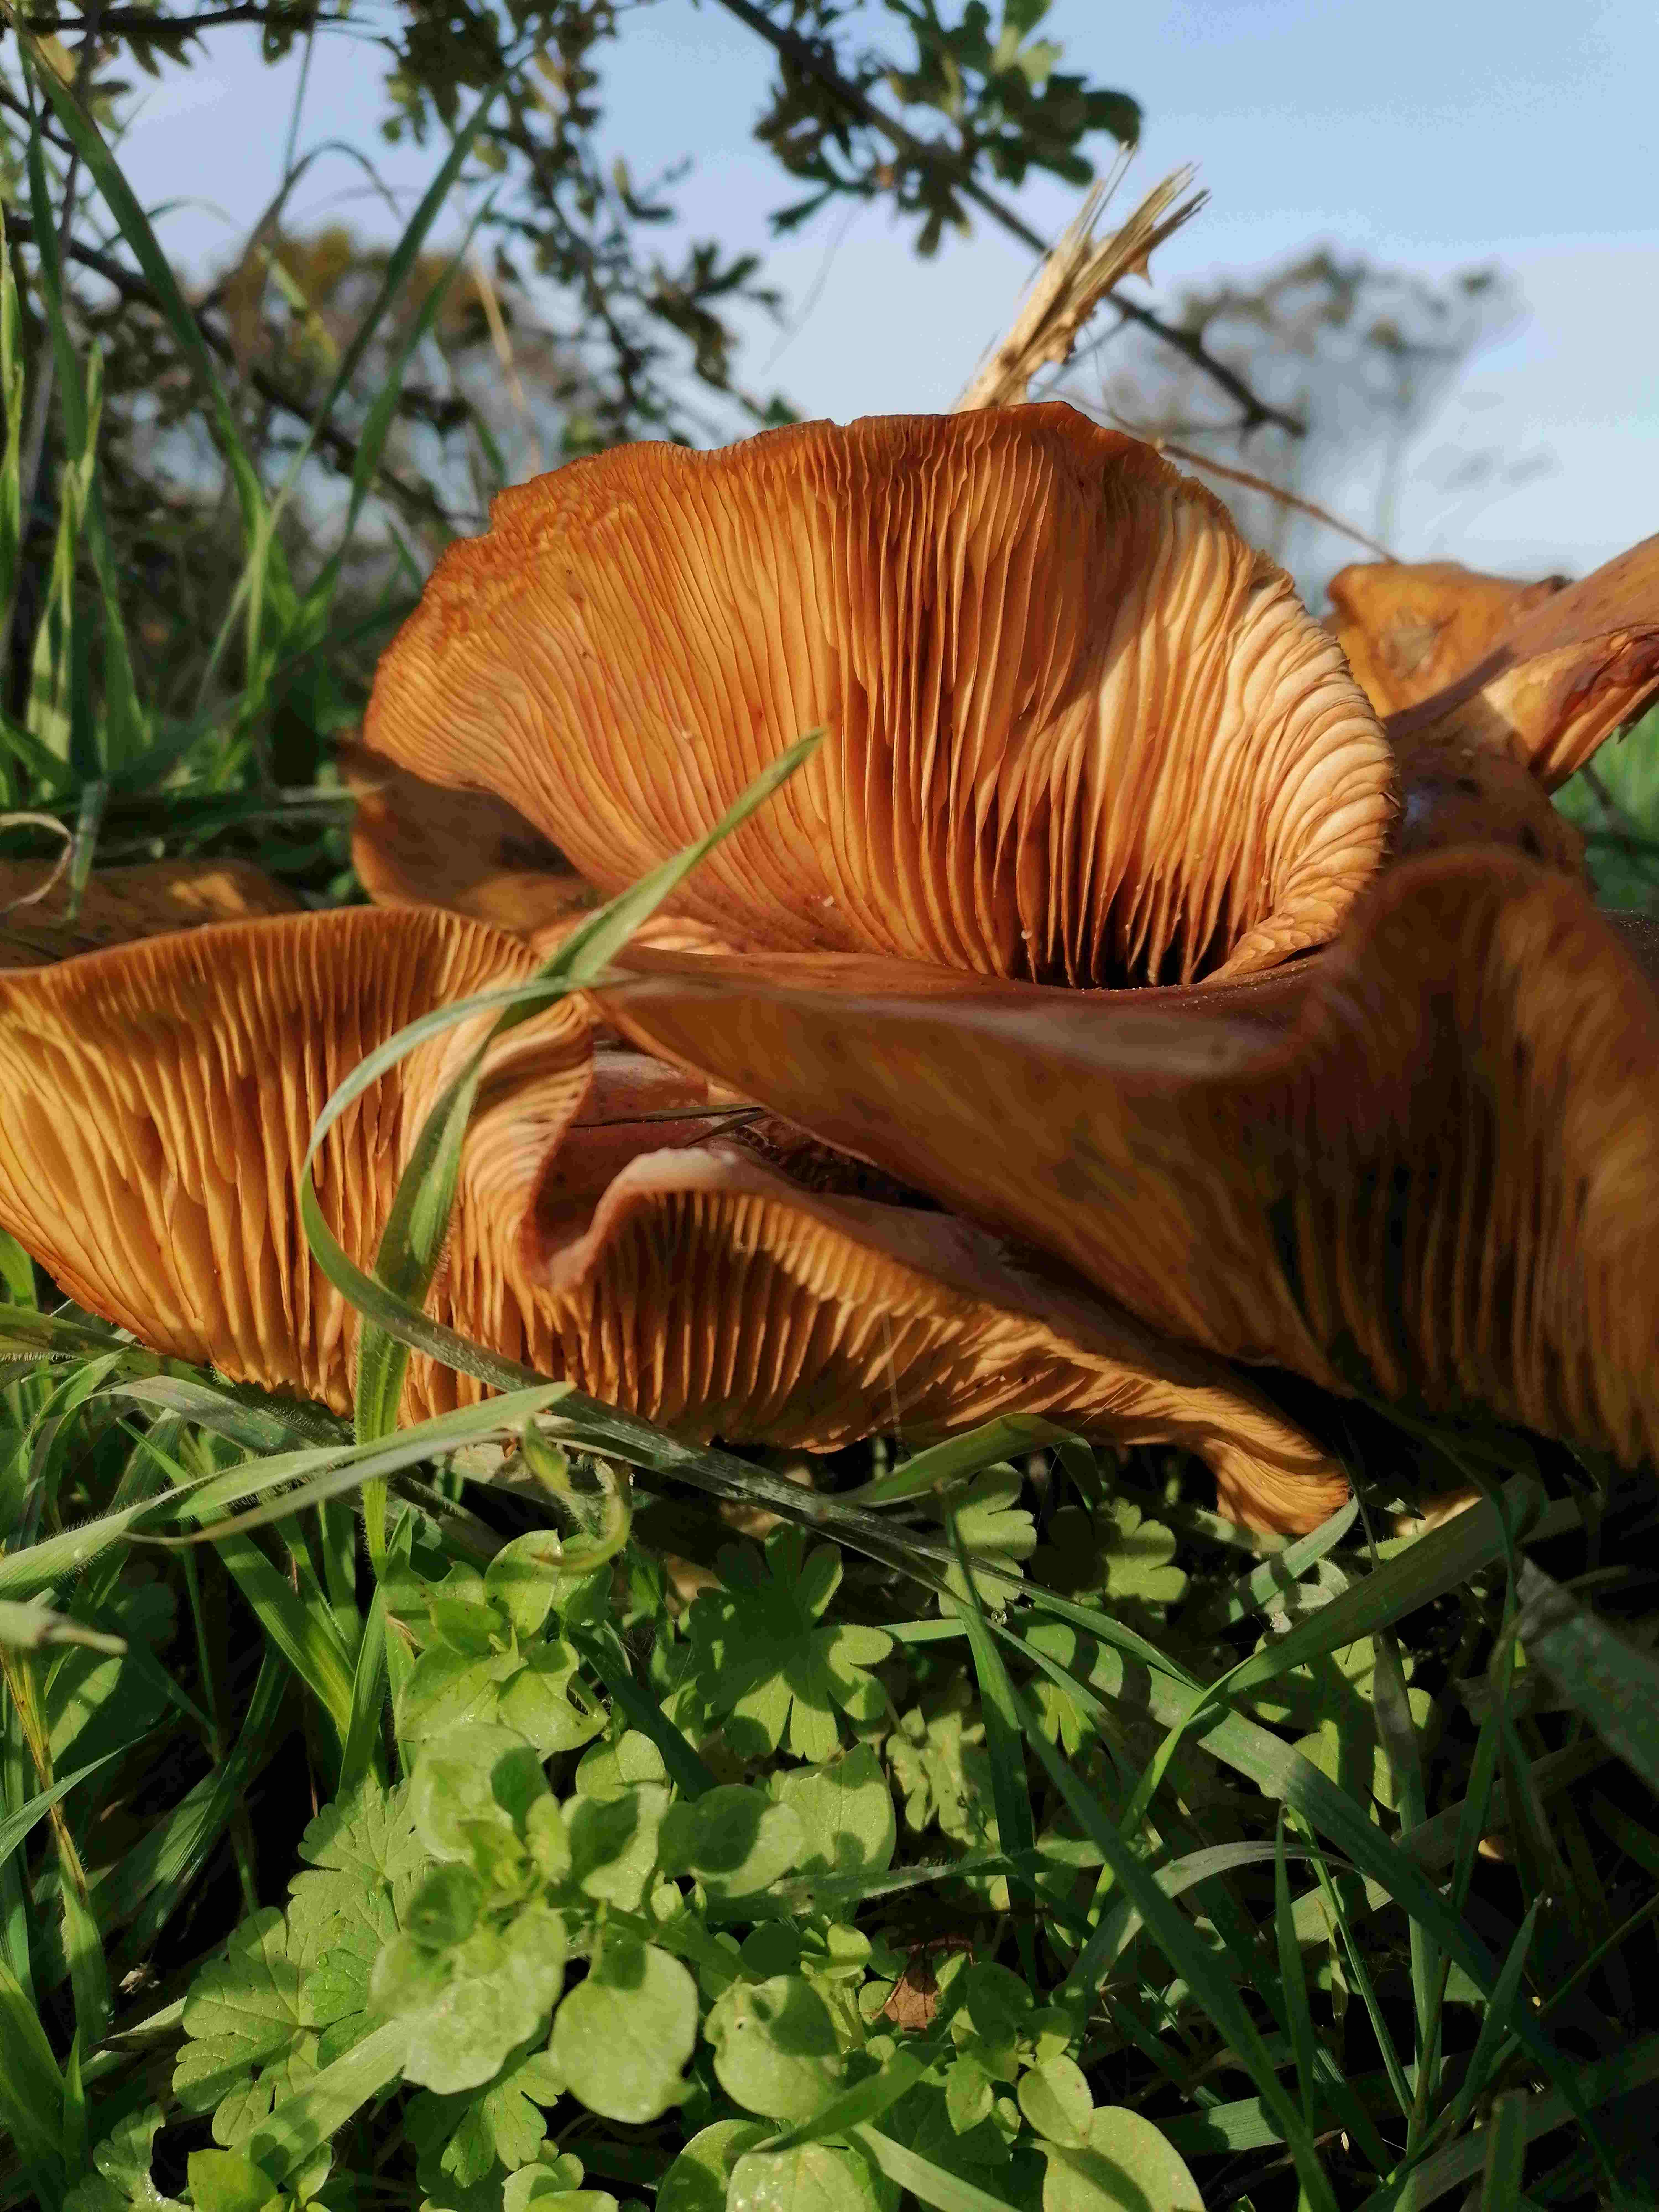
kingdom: Fungi
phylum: Basidiomycota
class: Agaricomycetes
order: Agaricales
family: Physalacriaceae
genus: Armillaria
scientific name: Armillaria
